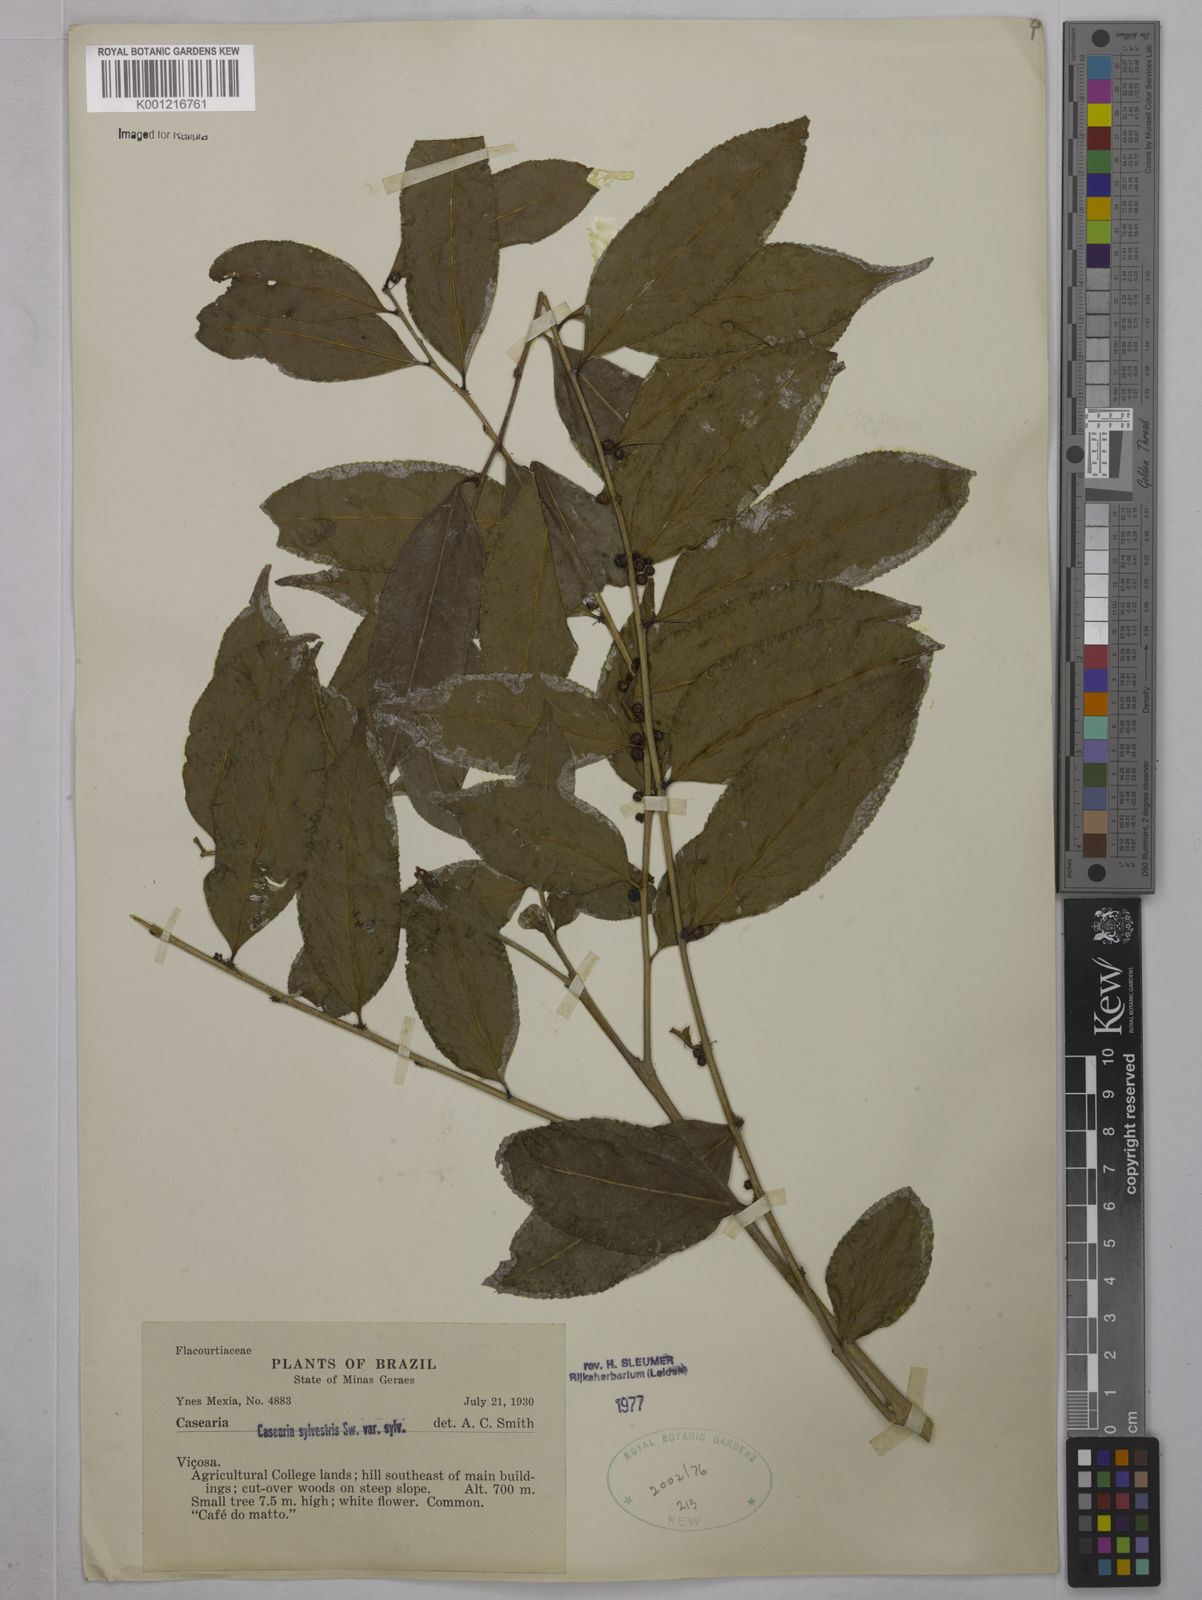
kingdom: Plantae
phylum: Tracheophyta
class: Magnoliopsida
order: Malpighiales
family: Salicaceae
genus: Casearia
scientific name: Casearia sylvestris
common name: Wild sage
